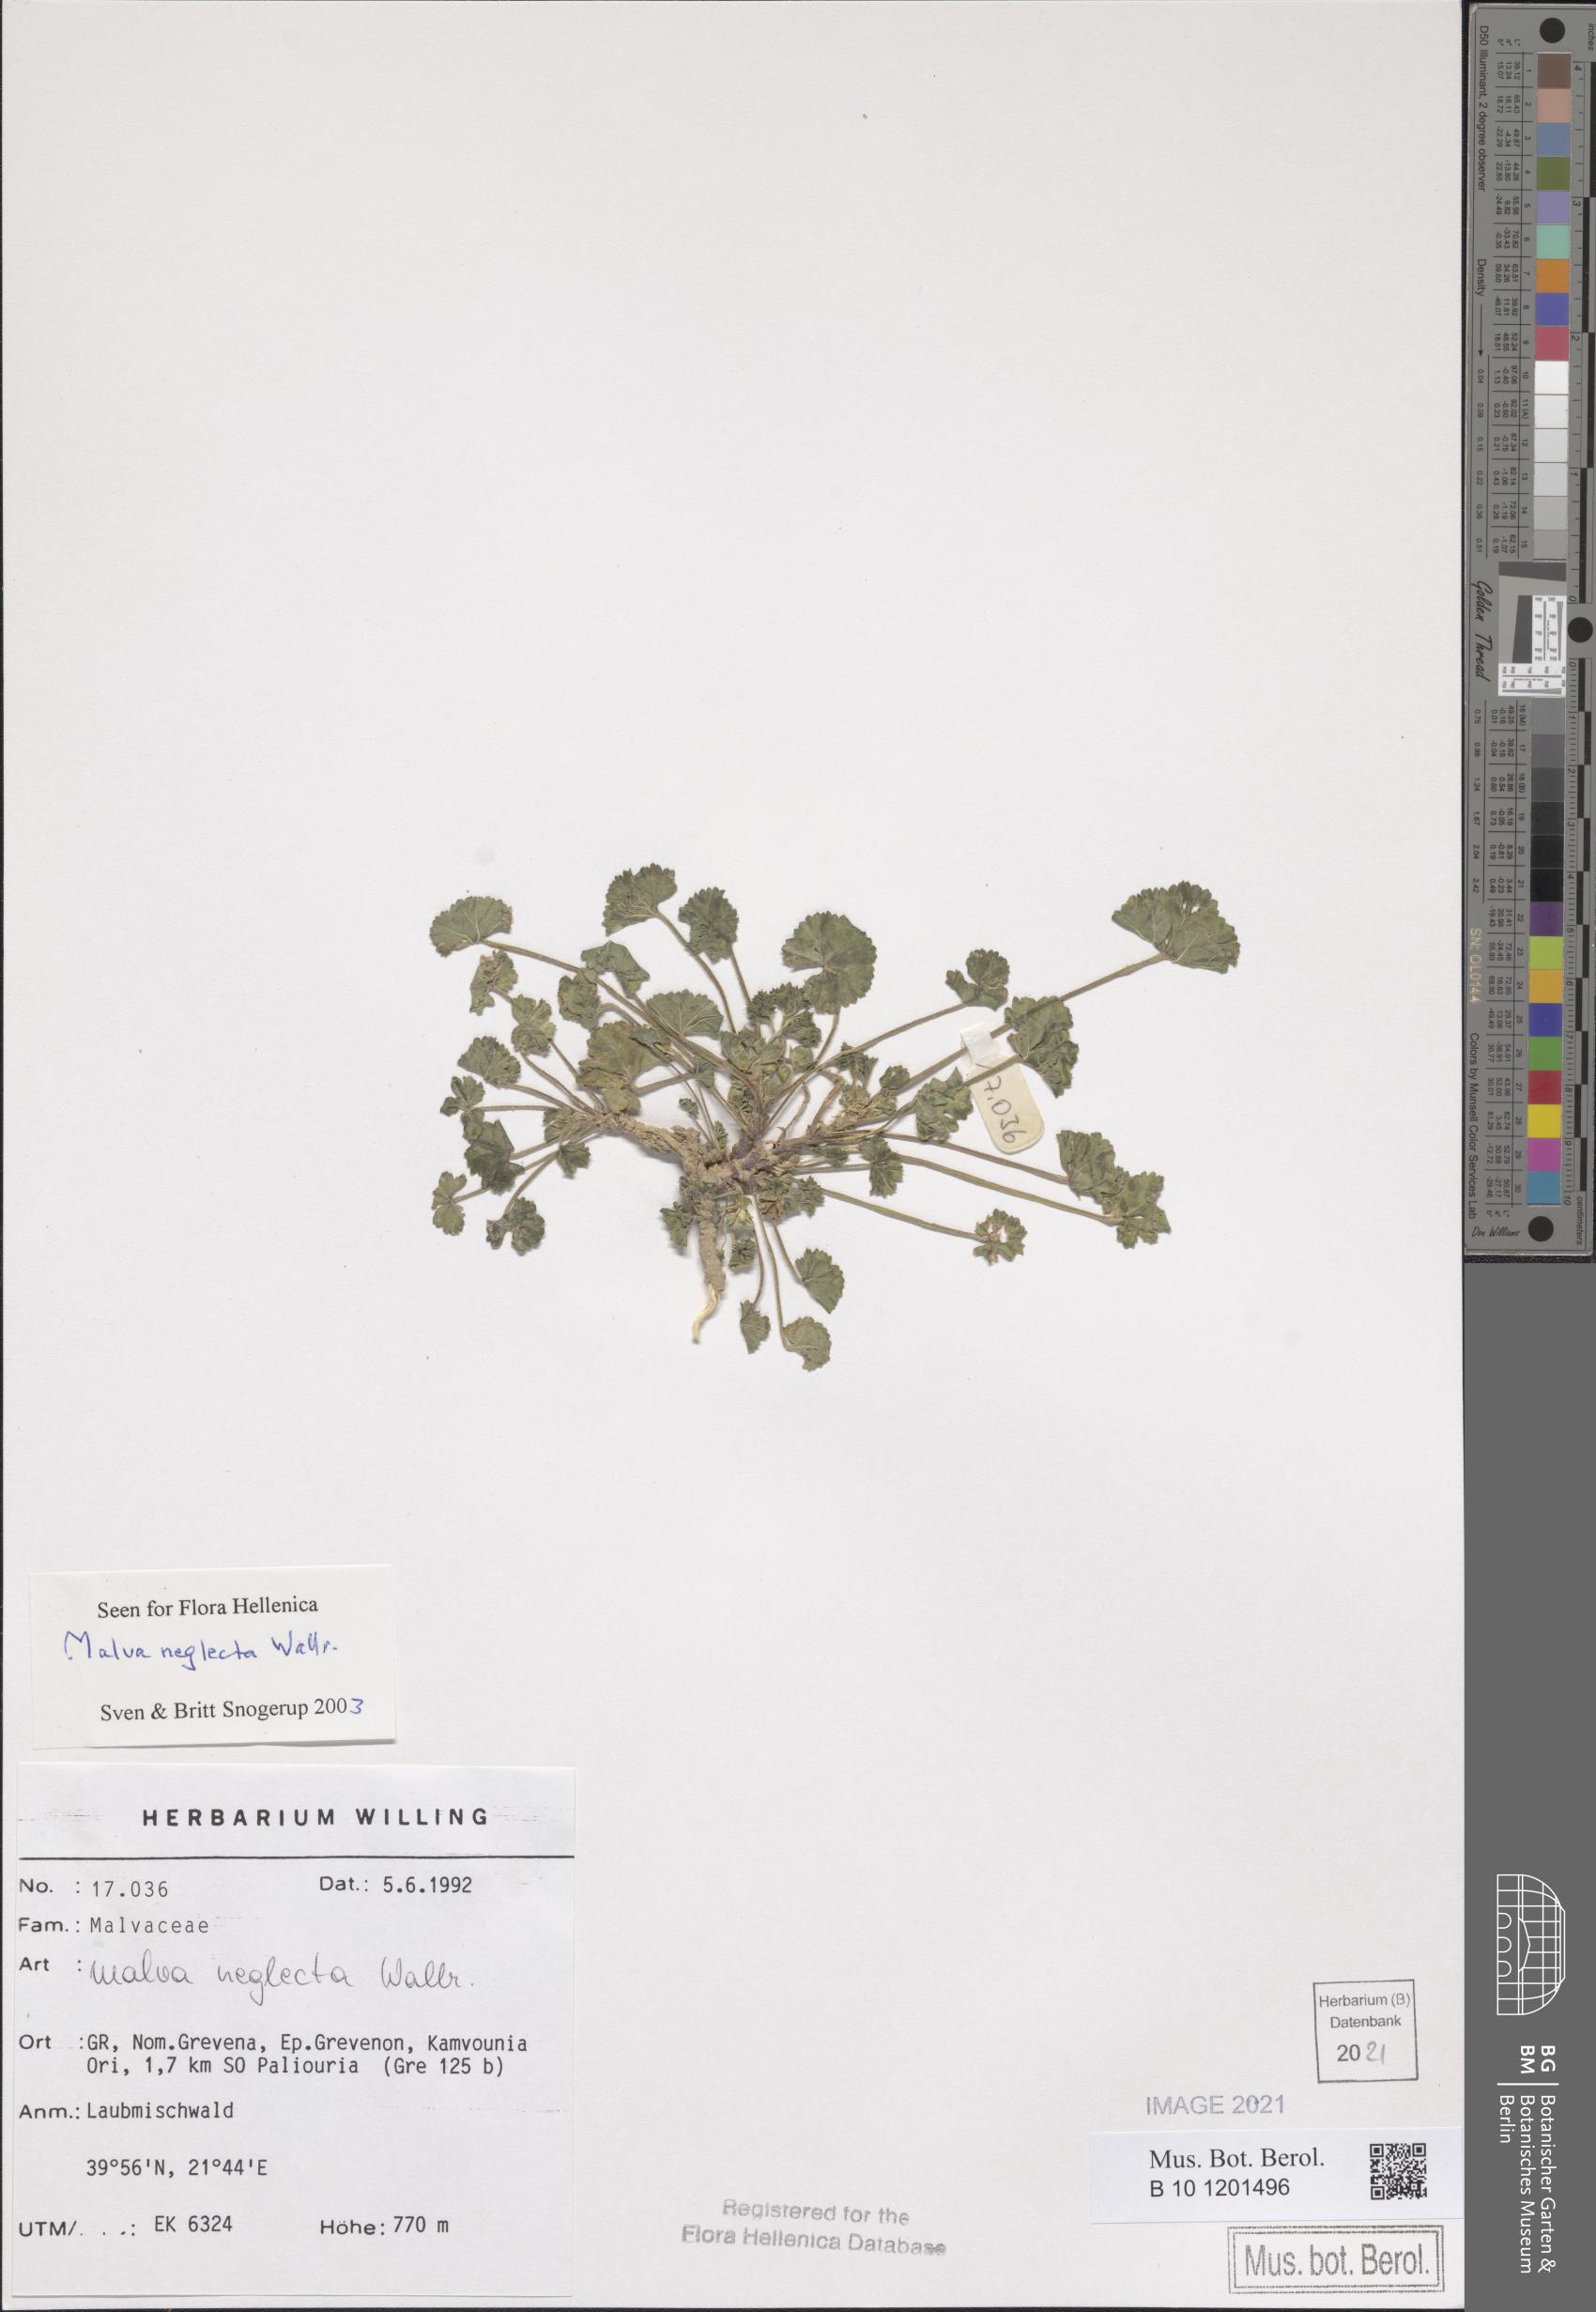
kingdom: Plantae
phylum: Tracheophyta
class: Magnoliopsida
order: Malvales
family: Malvaceae
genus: Malva
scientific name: Malva neglecta
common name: Common mallow
